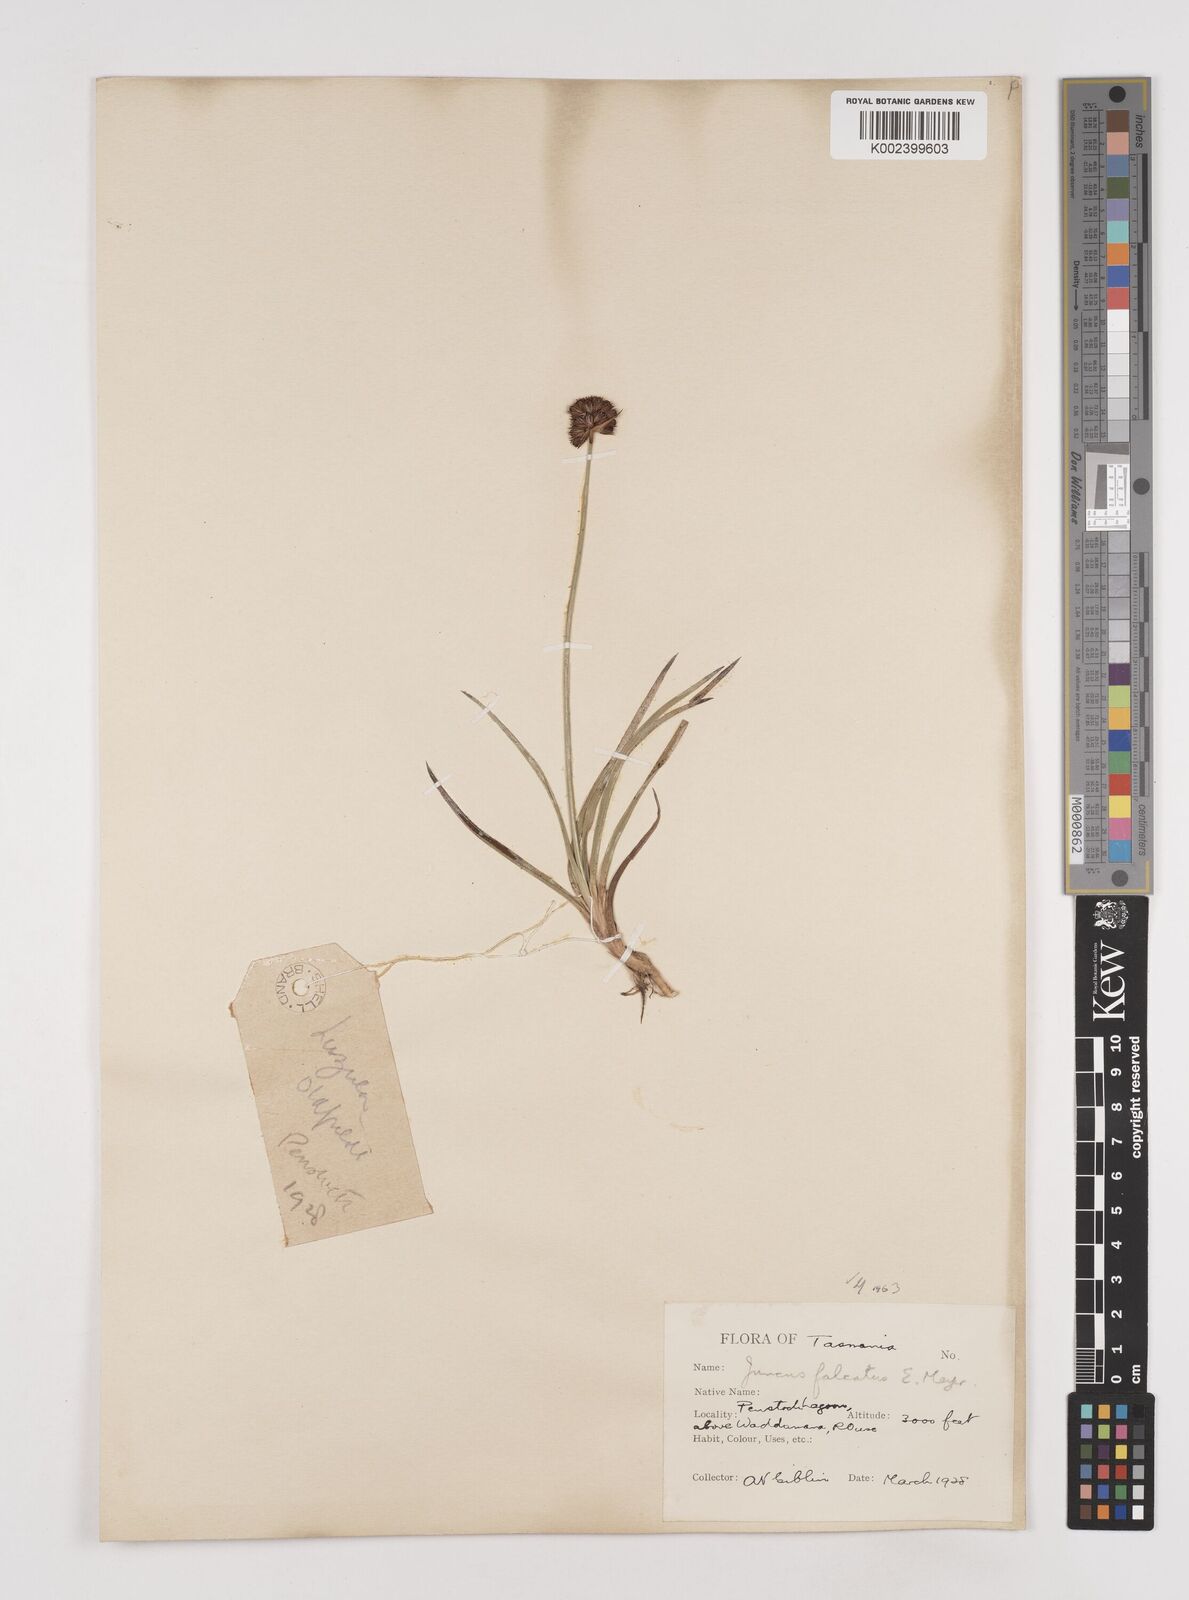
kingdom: Plantae
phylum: Tracheophyta
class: Liliopsida
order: Poales
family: Juncaceae
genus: Juncus
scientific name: Juncus falcatus
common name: Sickle-leaf rush
